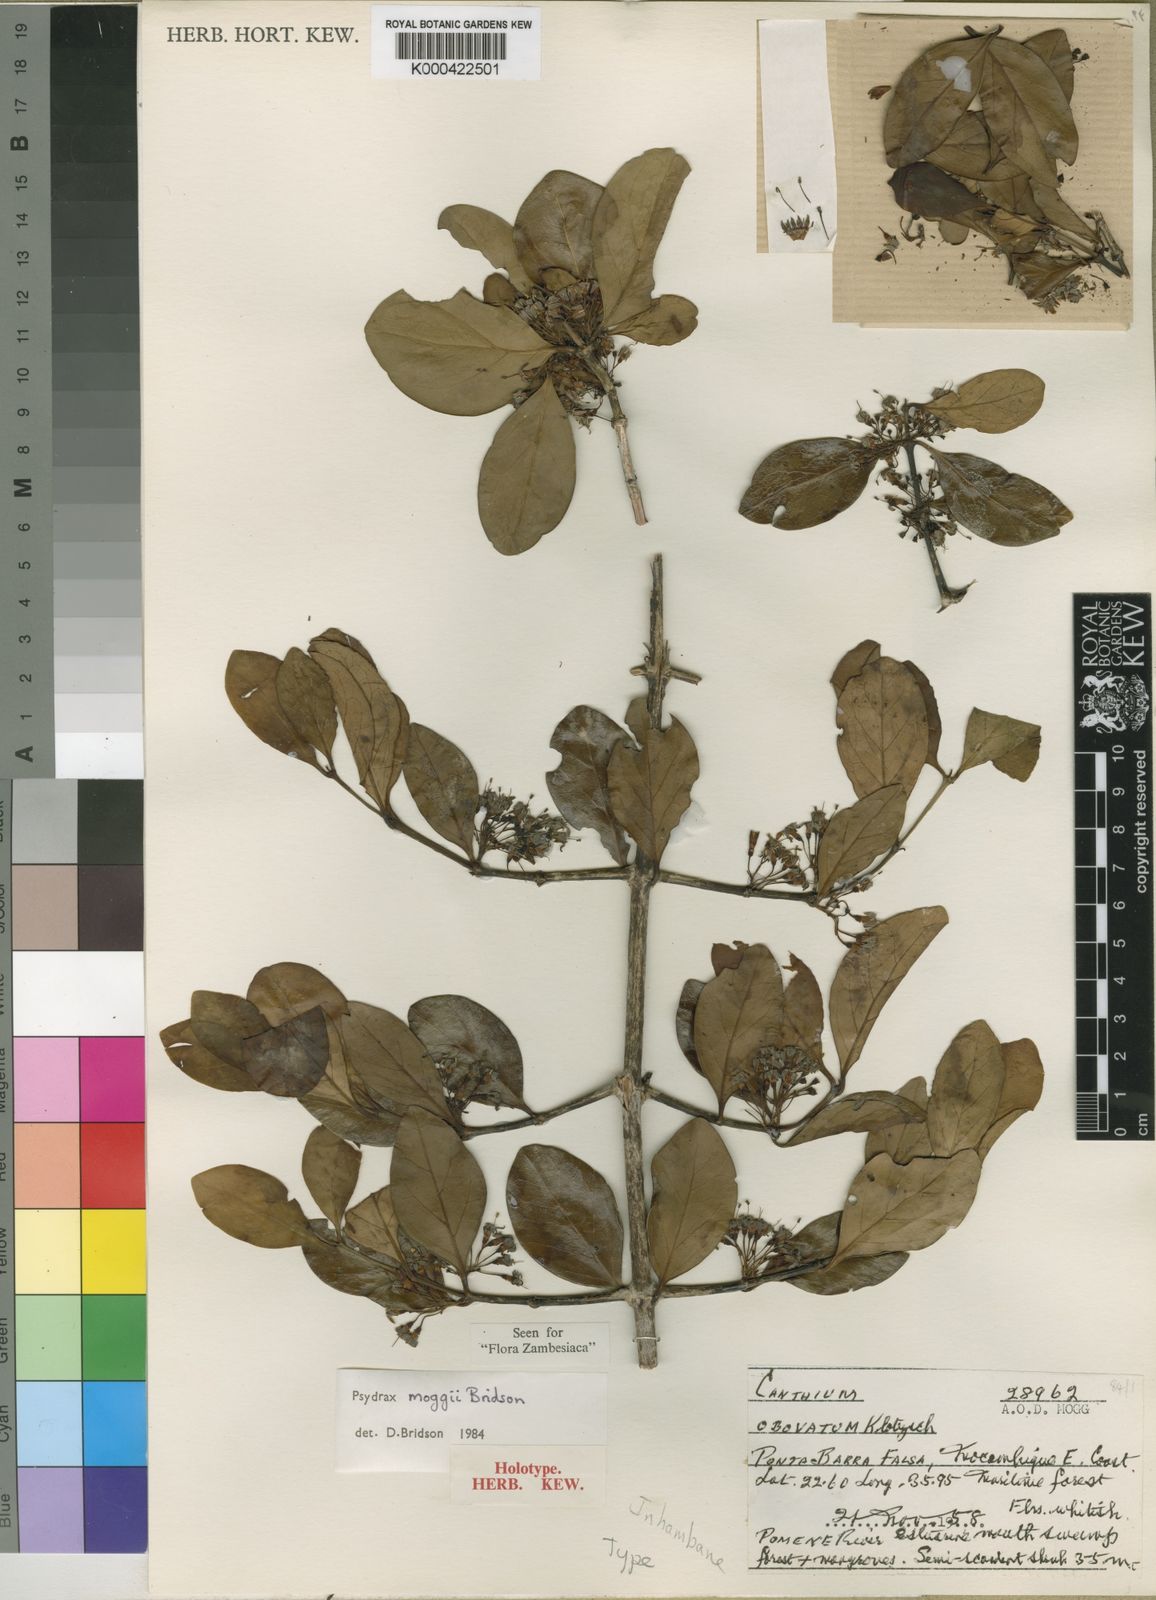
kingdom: Plantae
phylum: Tracheophyta
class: Magnoliopsida
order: Gentianales
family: Rubiaceae
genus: Psydrax
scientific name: Psydrax moggii
